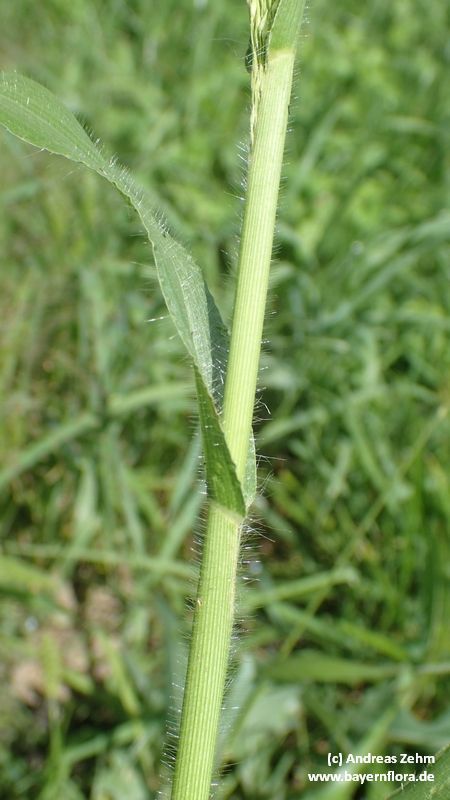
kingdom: Plantae
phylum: Tracheophyta
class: Liliopsida
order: Poales
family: Poaceae
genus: Panicum
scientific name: Panicum capillare
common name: Witch-grass
